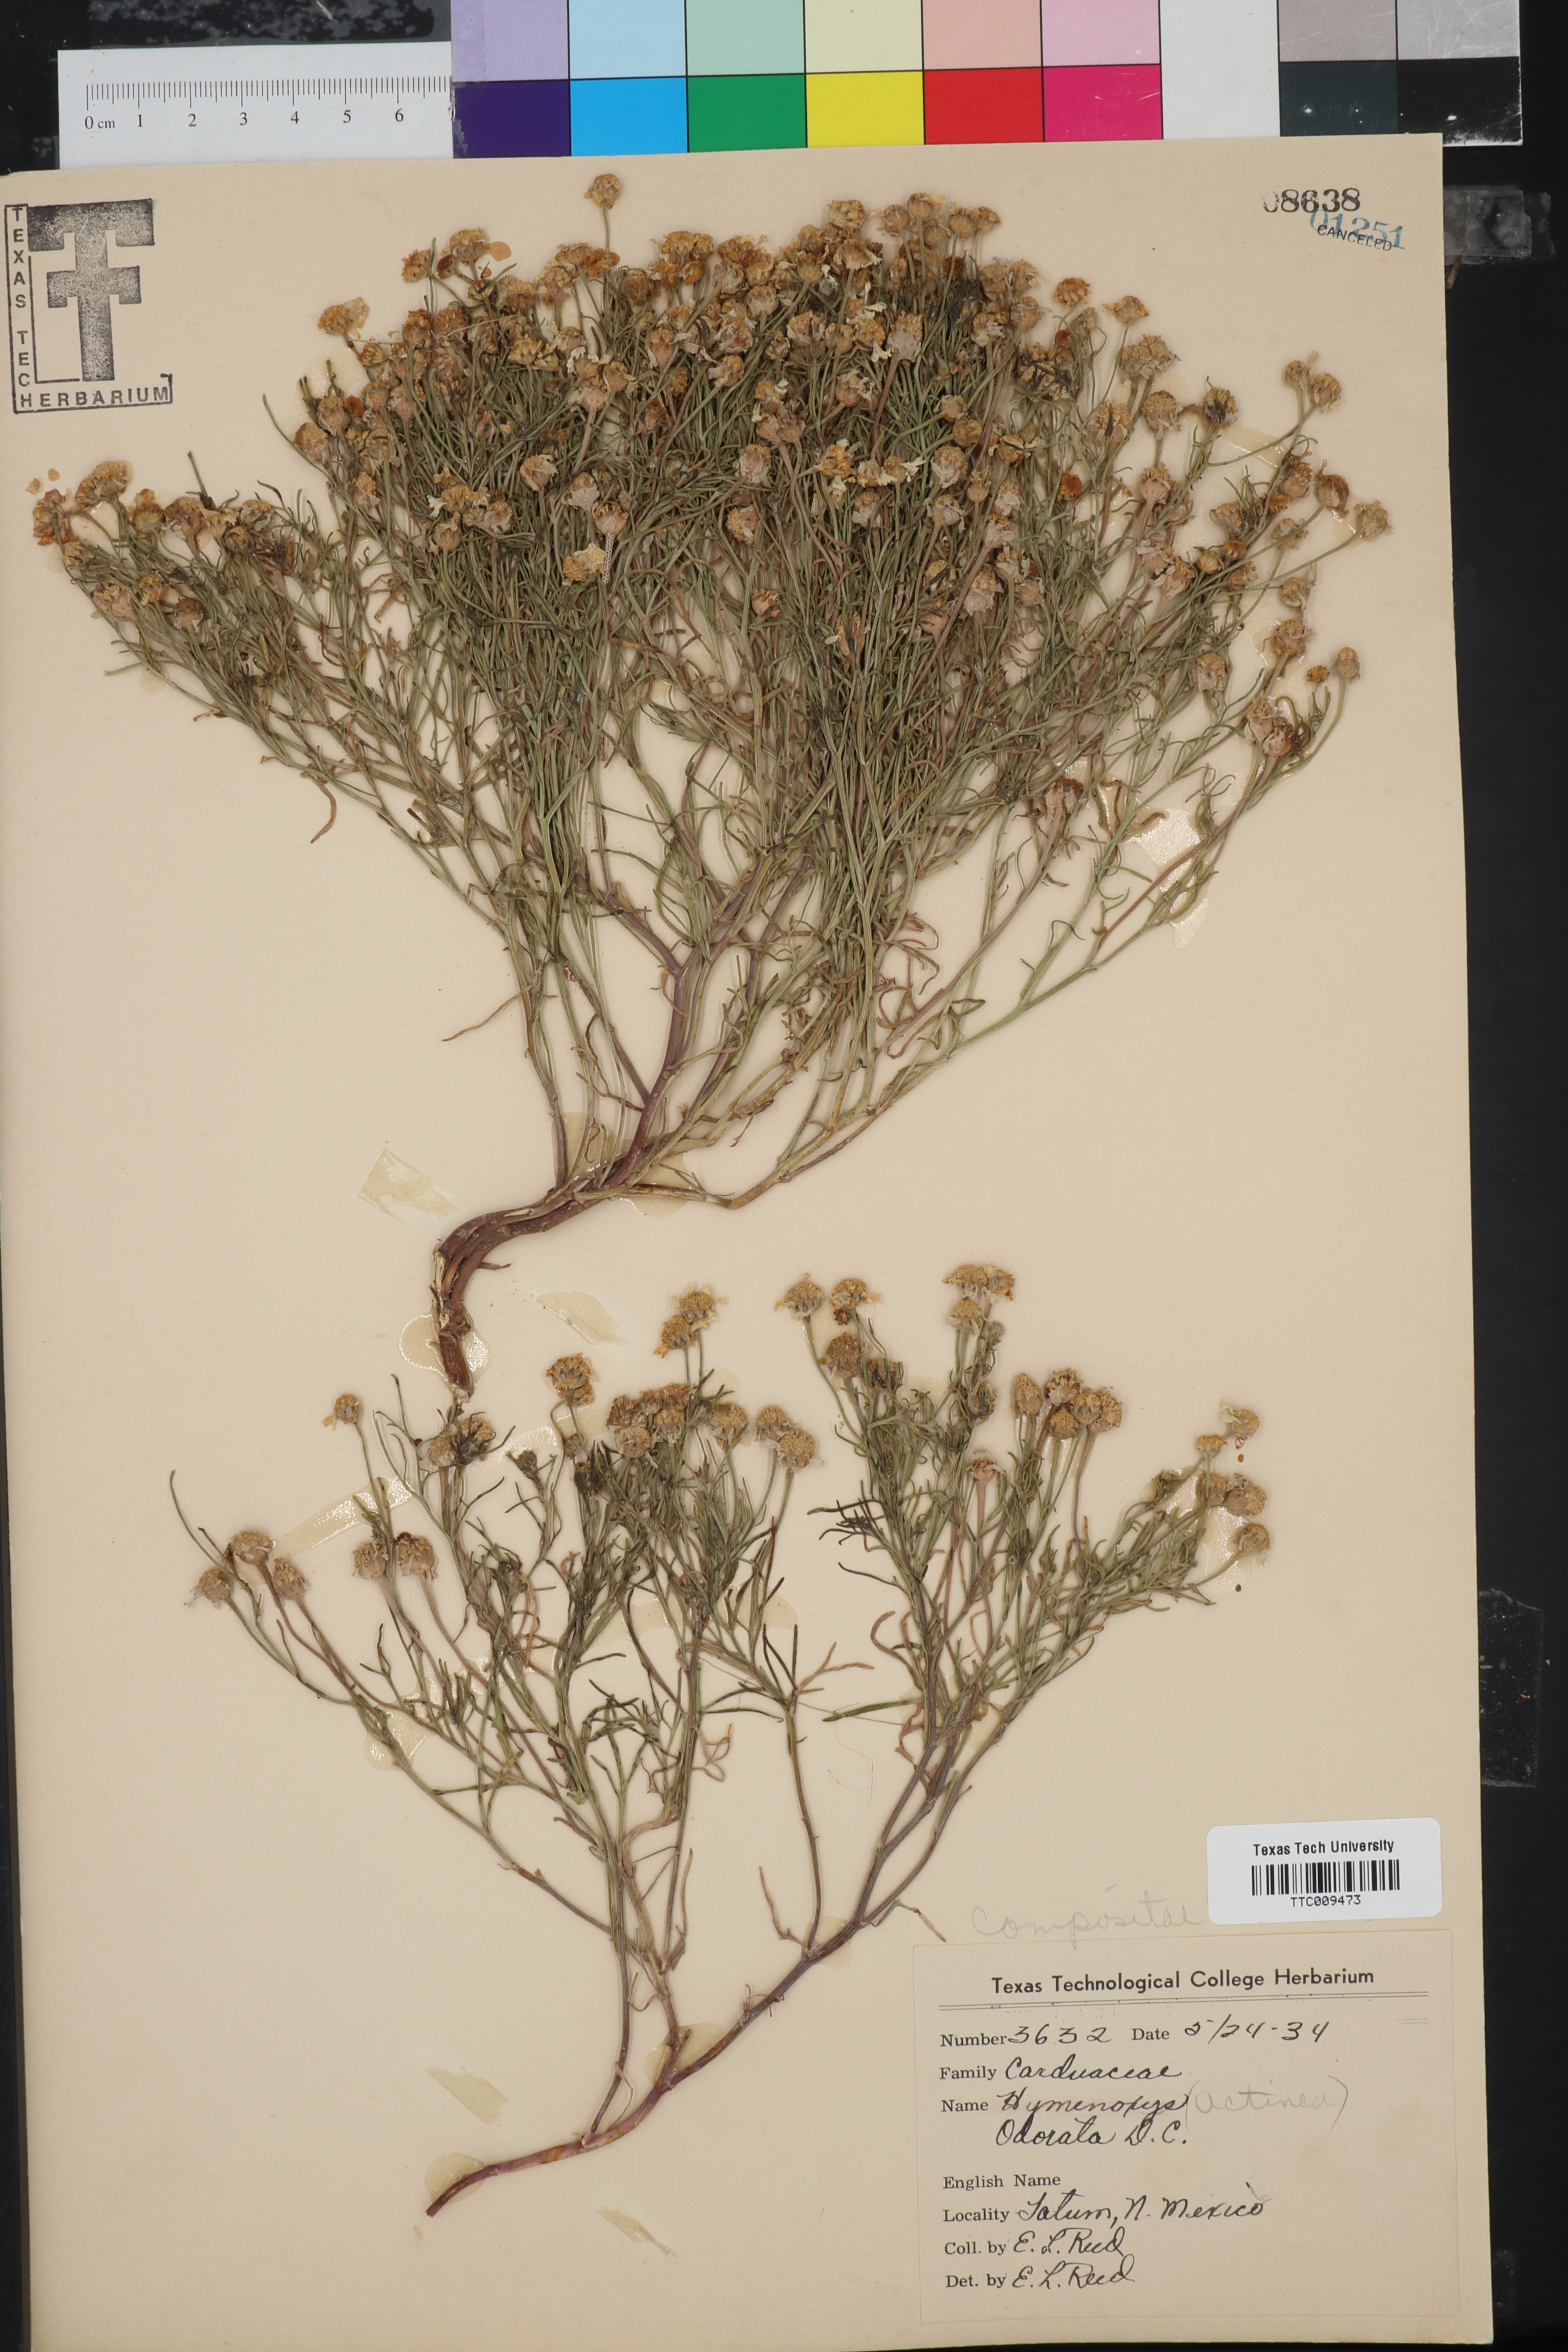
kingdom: Plantae
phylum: Tracheophyta
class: Magnoliopsida
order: Asterales
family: Asteraceae
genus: Hymenoxys
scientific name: Hymenoxys odorata
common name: Bitter rubberweed
